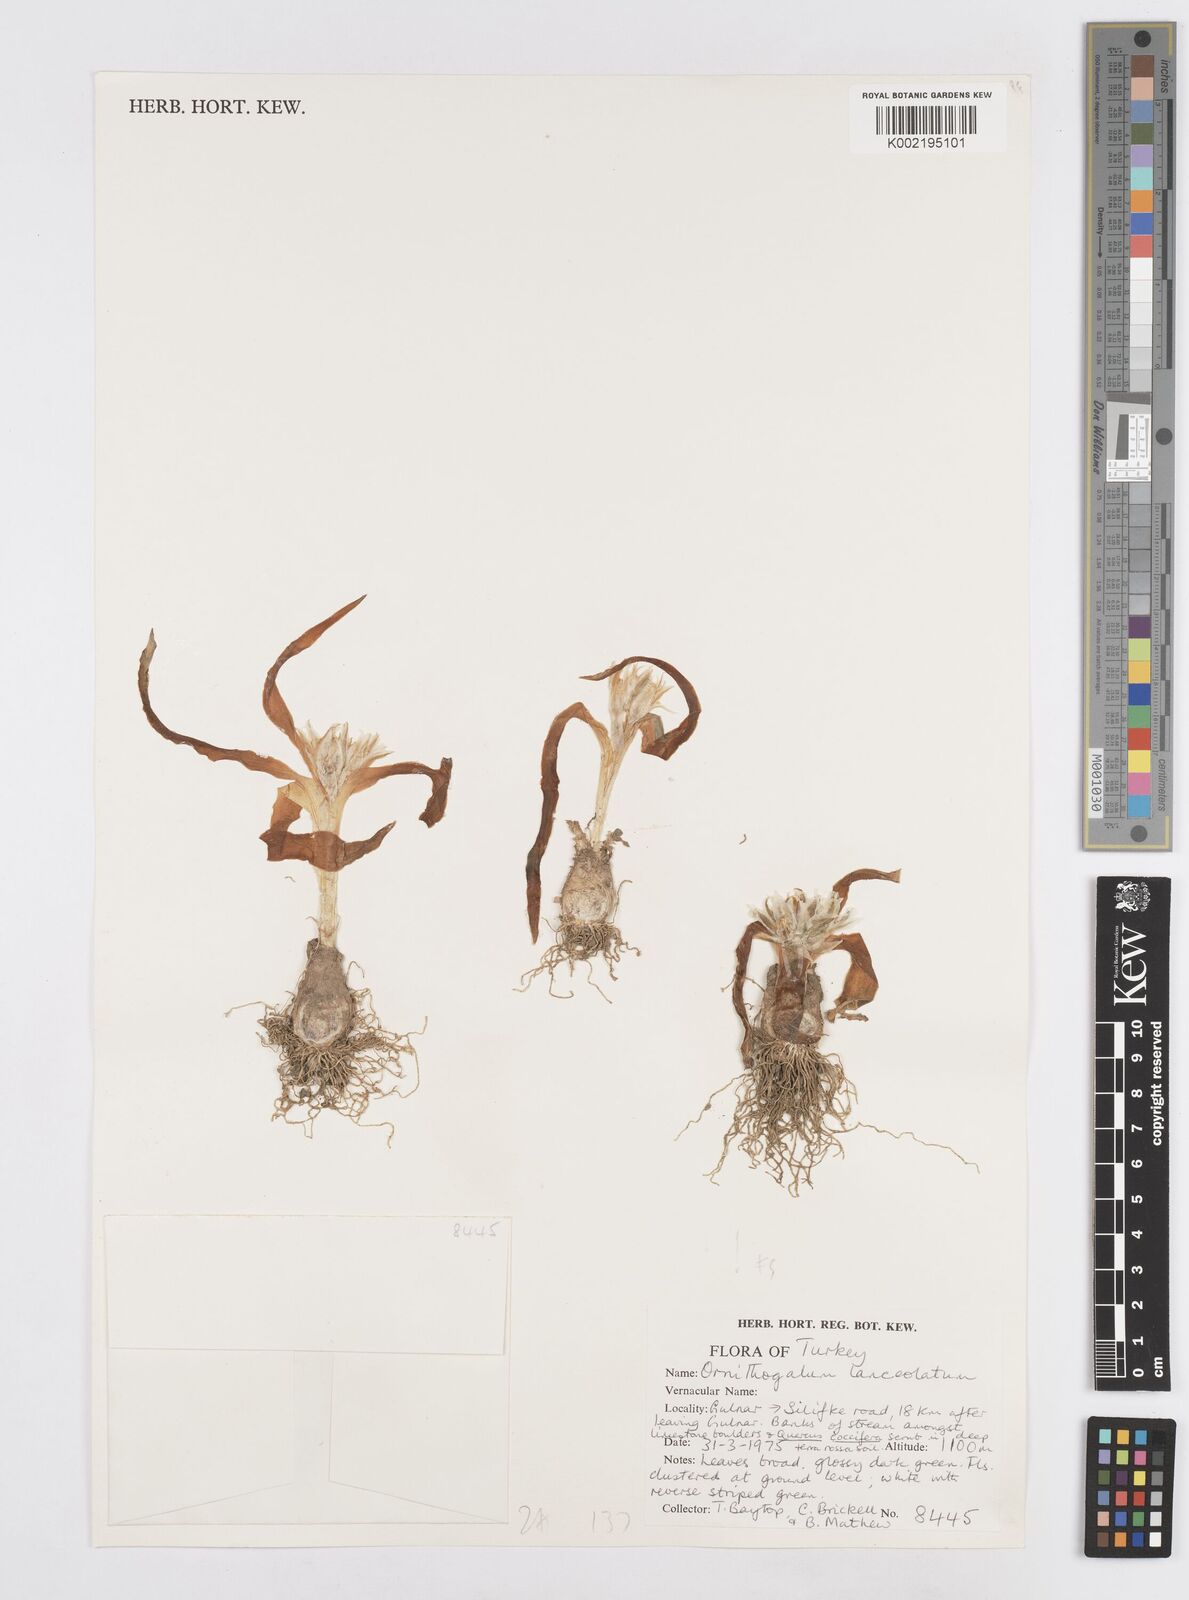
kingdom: Plantae
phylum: Tracheophyta
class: Liliopsida
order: Asparagales
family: Asparagaceae
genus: Ornithogalum
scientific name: Ornithogalum lanceolatum
